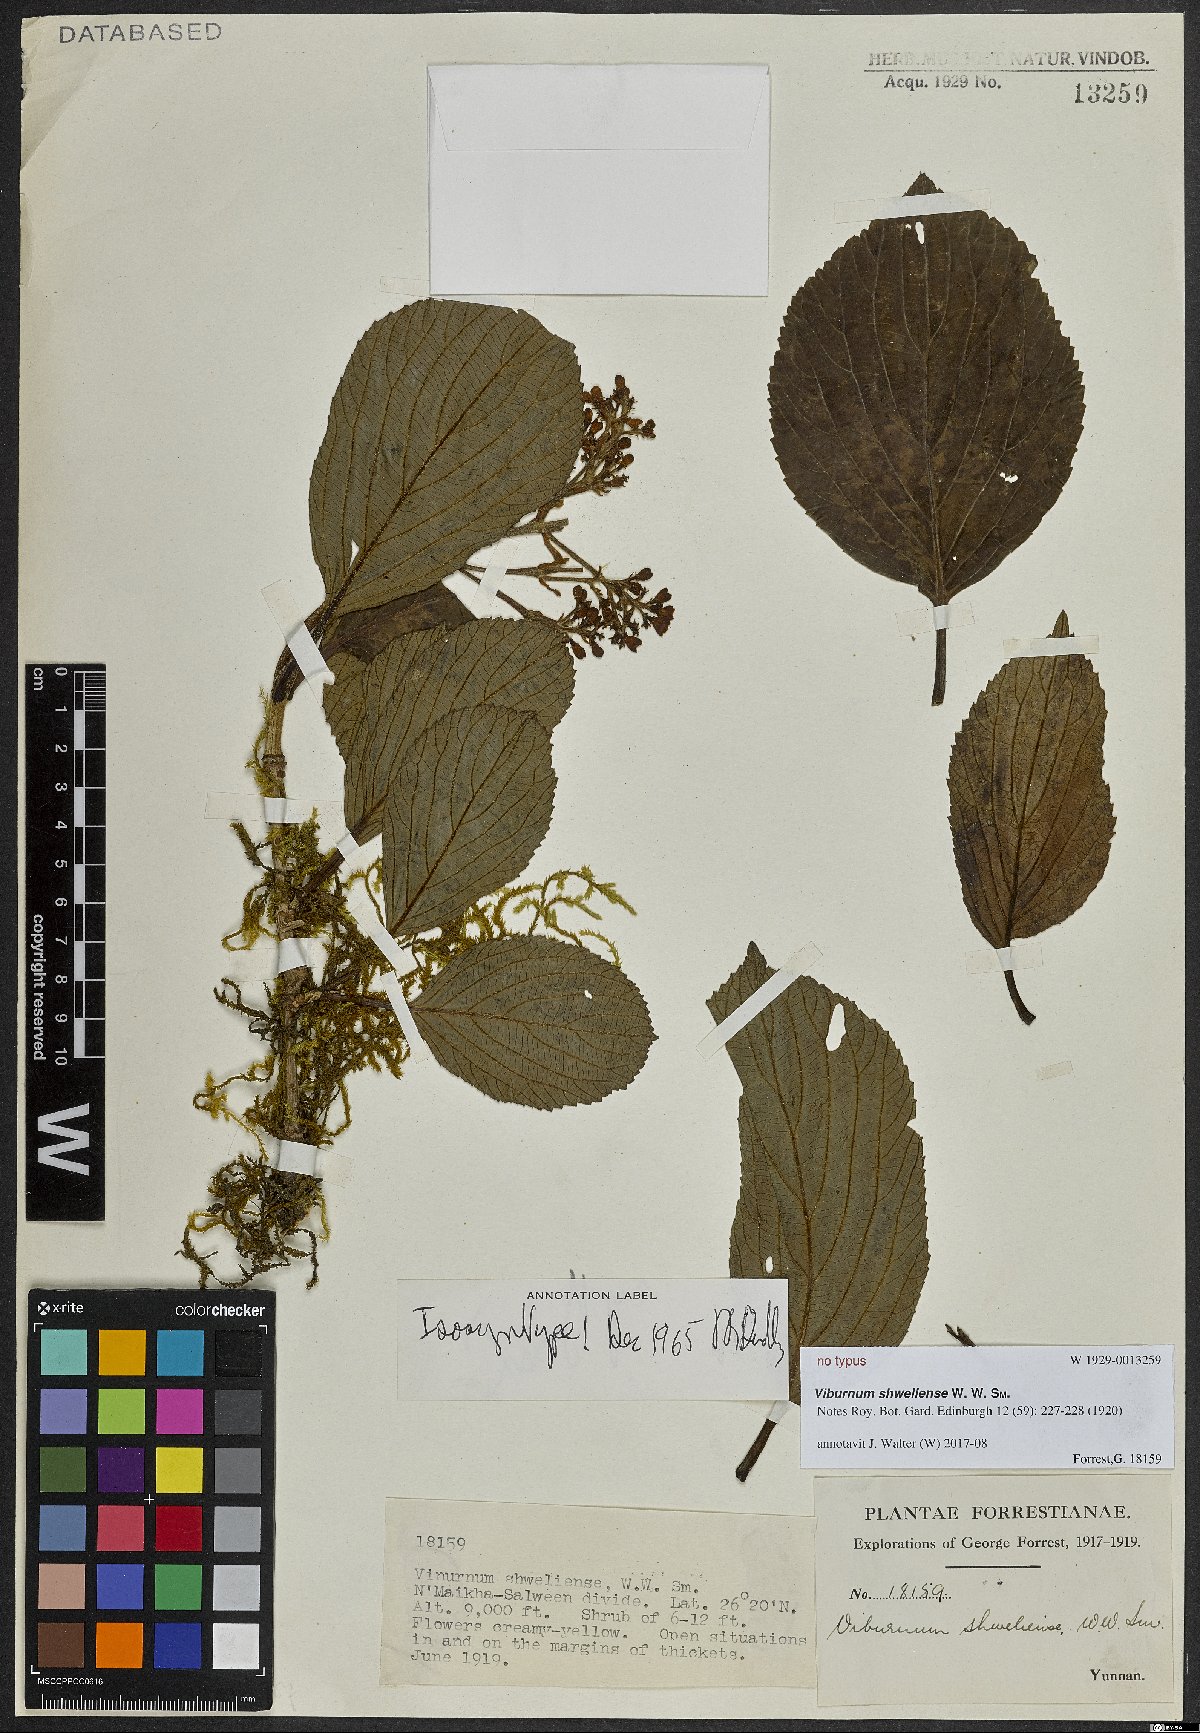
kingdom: Plantae
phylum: Tracheophyta
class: Magnoliopsida
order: Dipsacales
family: Viburnaceae
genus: Viburnum
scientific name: Viburnum shweliense
